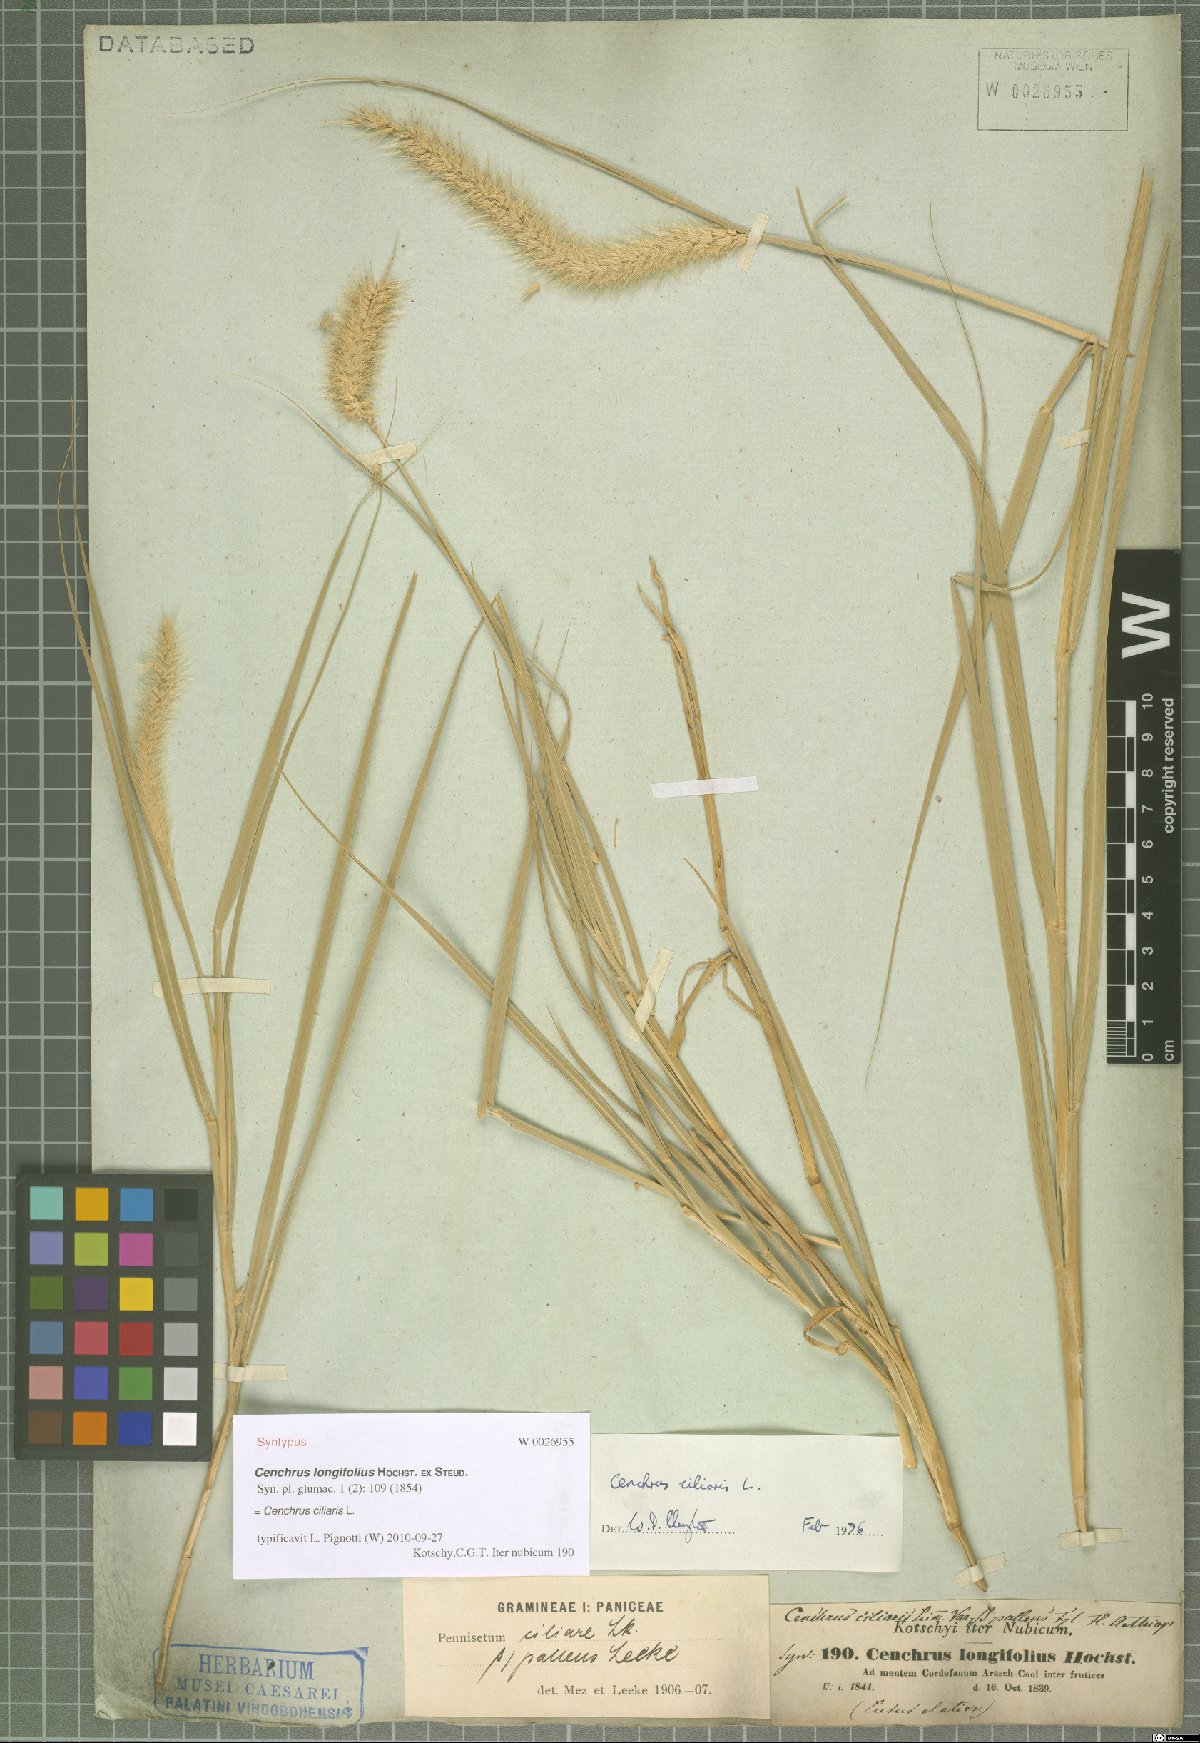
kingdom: Plantae
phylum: Tracheophyta
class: Liliopsida
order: Poales
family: Poaceae
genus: Cenchrus
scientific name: Cenchrus ciliaris
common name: Buffelgrass
